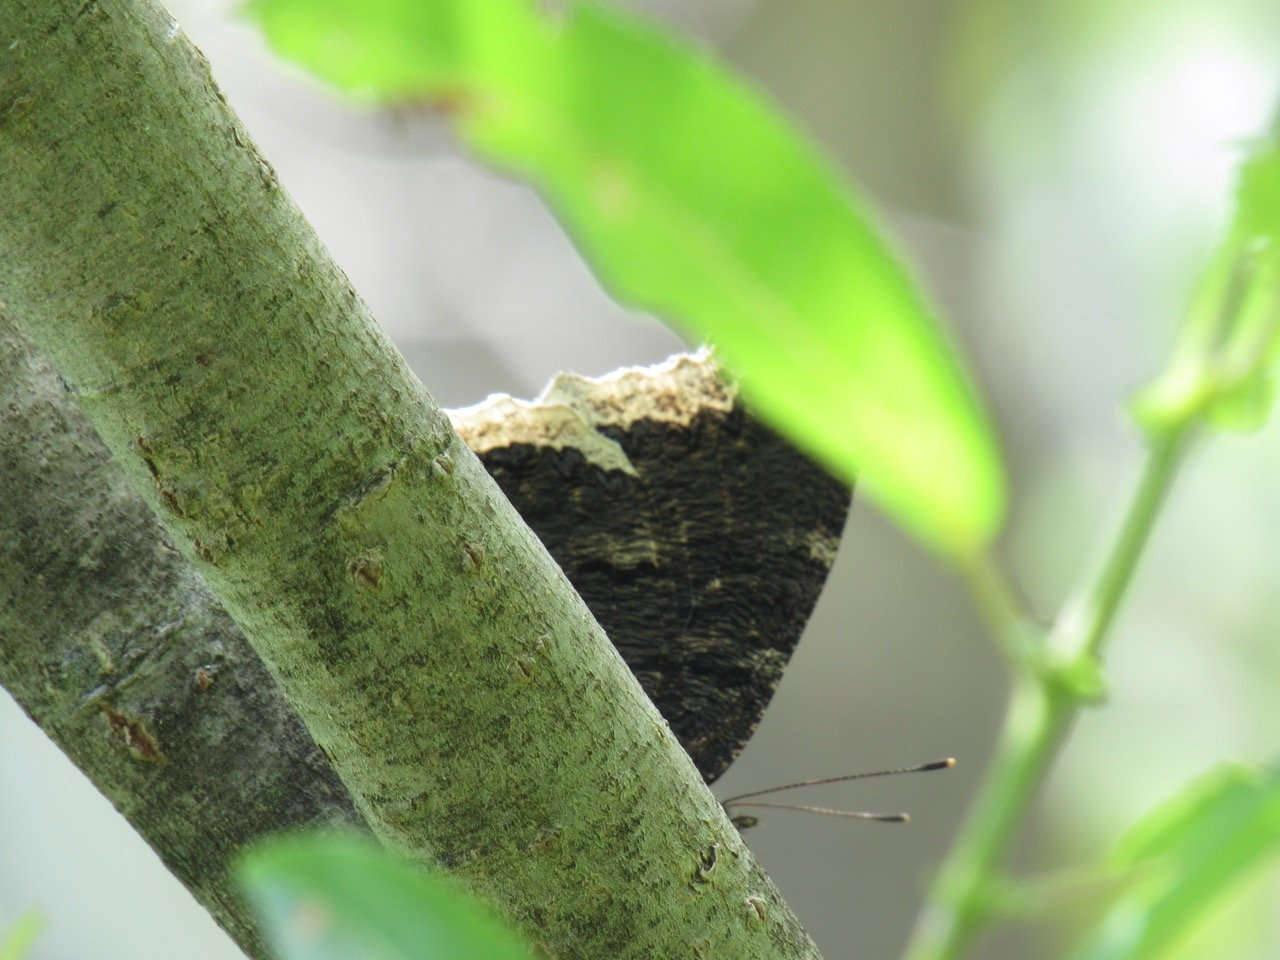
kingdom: Animalia
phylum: Arthropoda
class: Insecta
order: Lepidoptera
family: Nymphalidae
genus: Nymphalis
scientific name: Nymphalis antiopa
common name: Mourning Cloak
